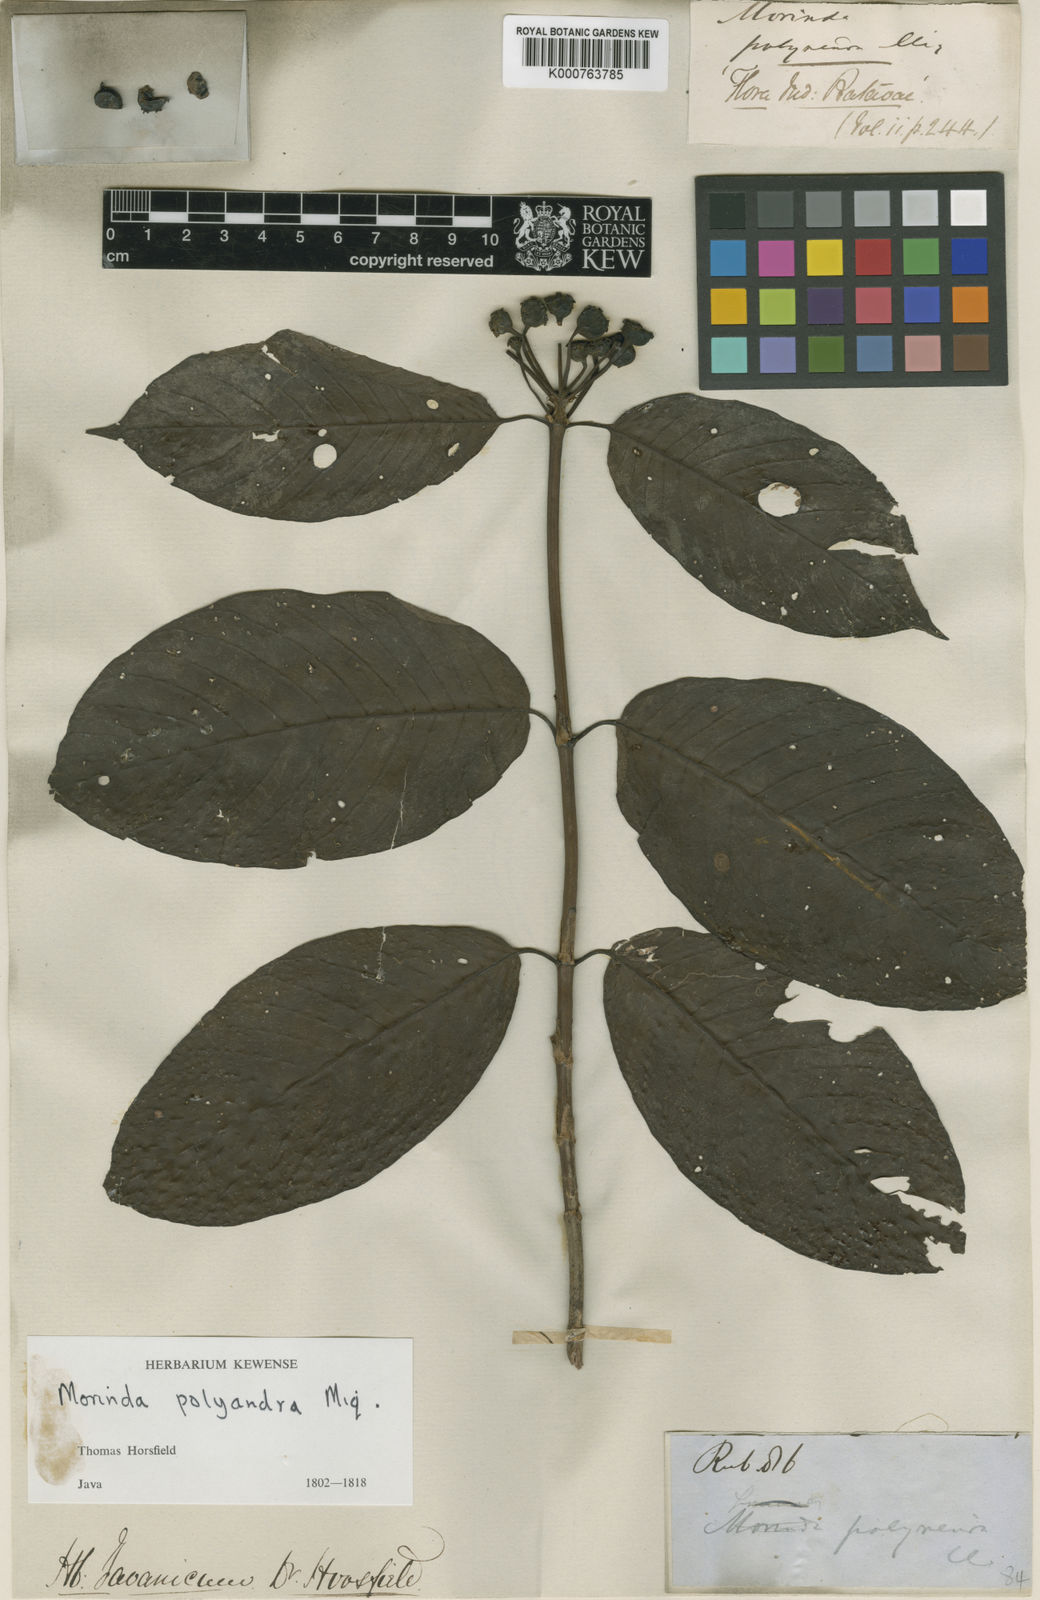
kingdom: Plantae
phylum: Tracheophyta
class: Magnoliopsida
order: Gentianales
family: Rubiaceae
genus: Morinda
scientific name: Morinda
